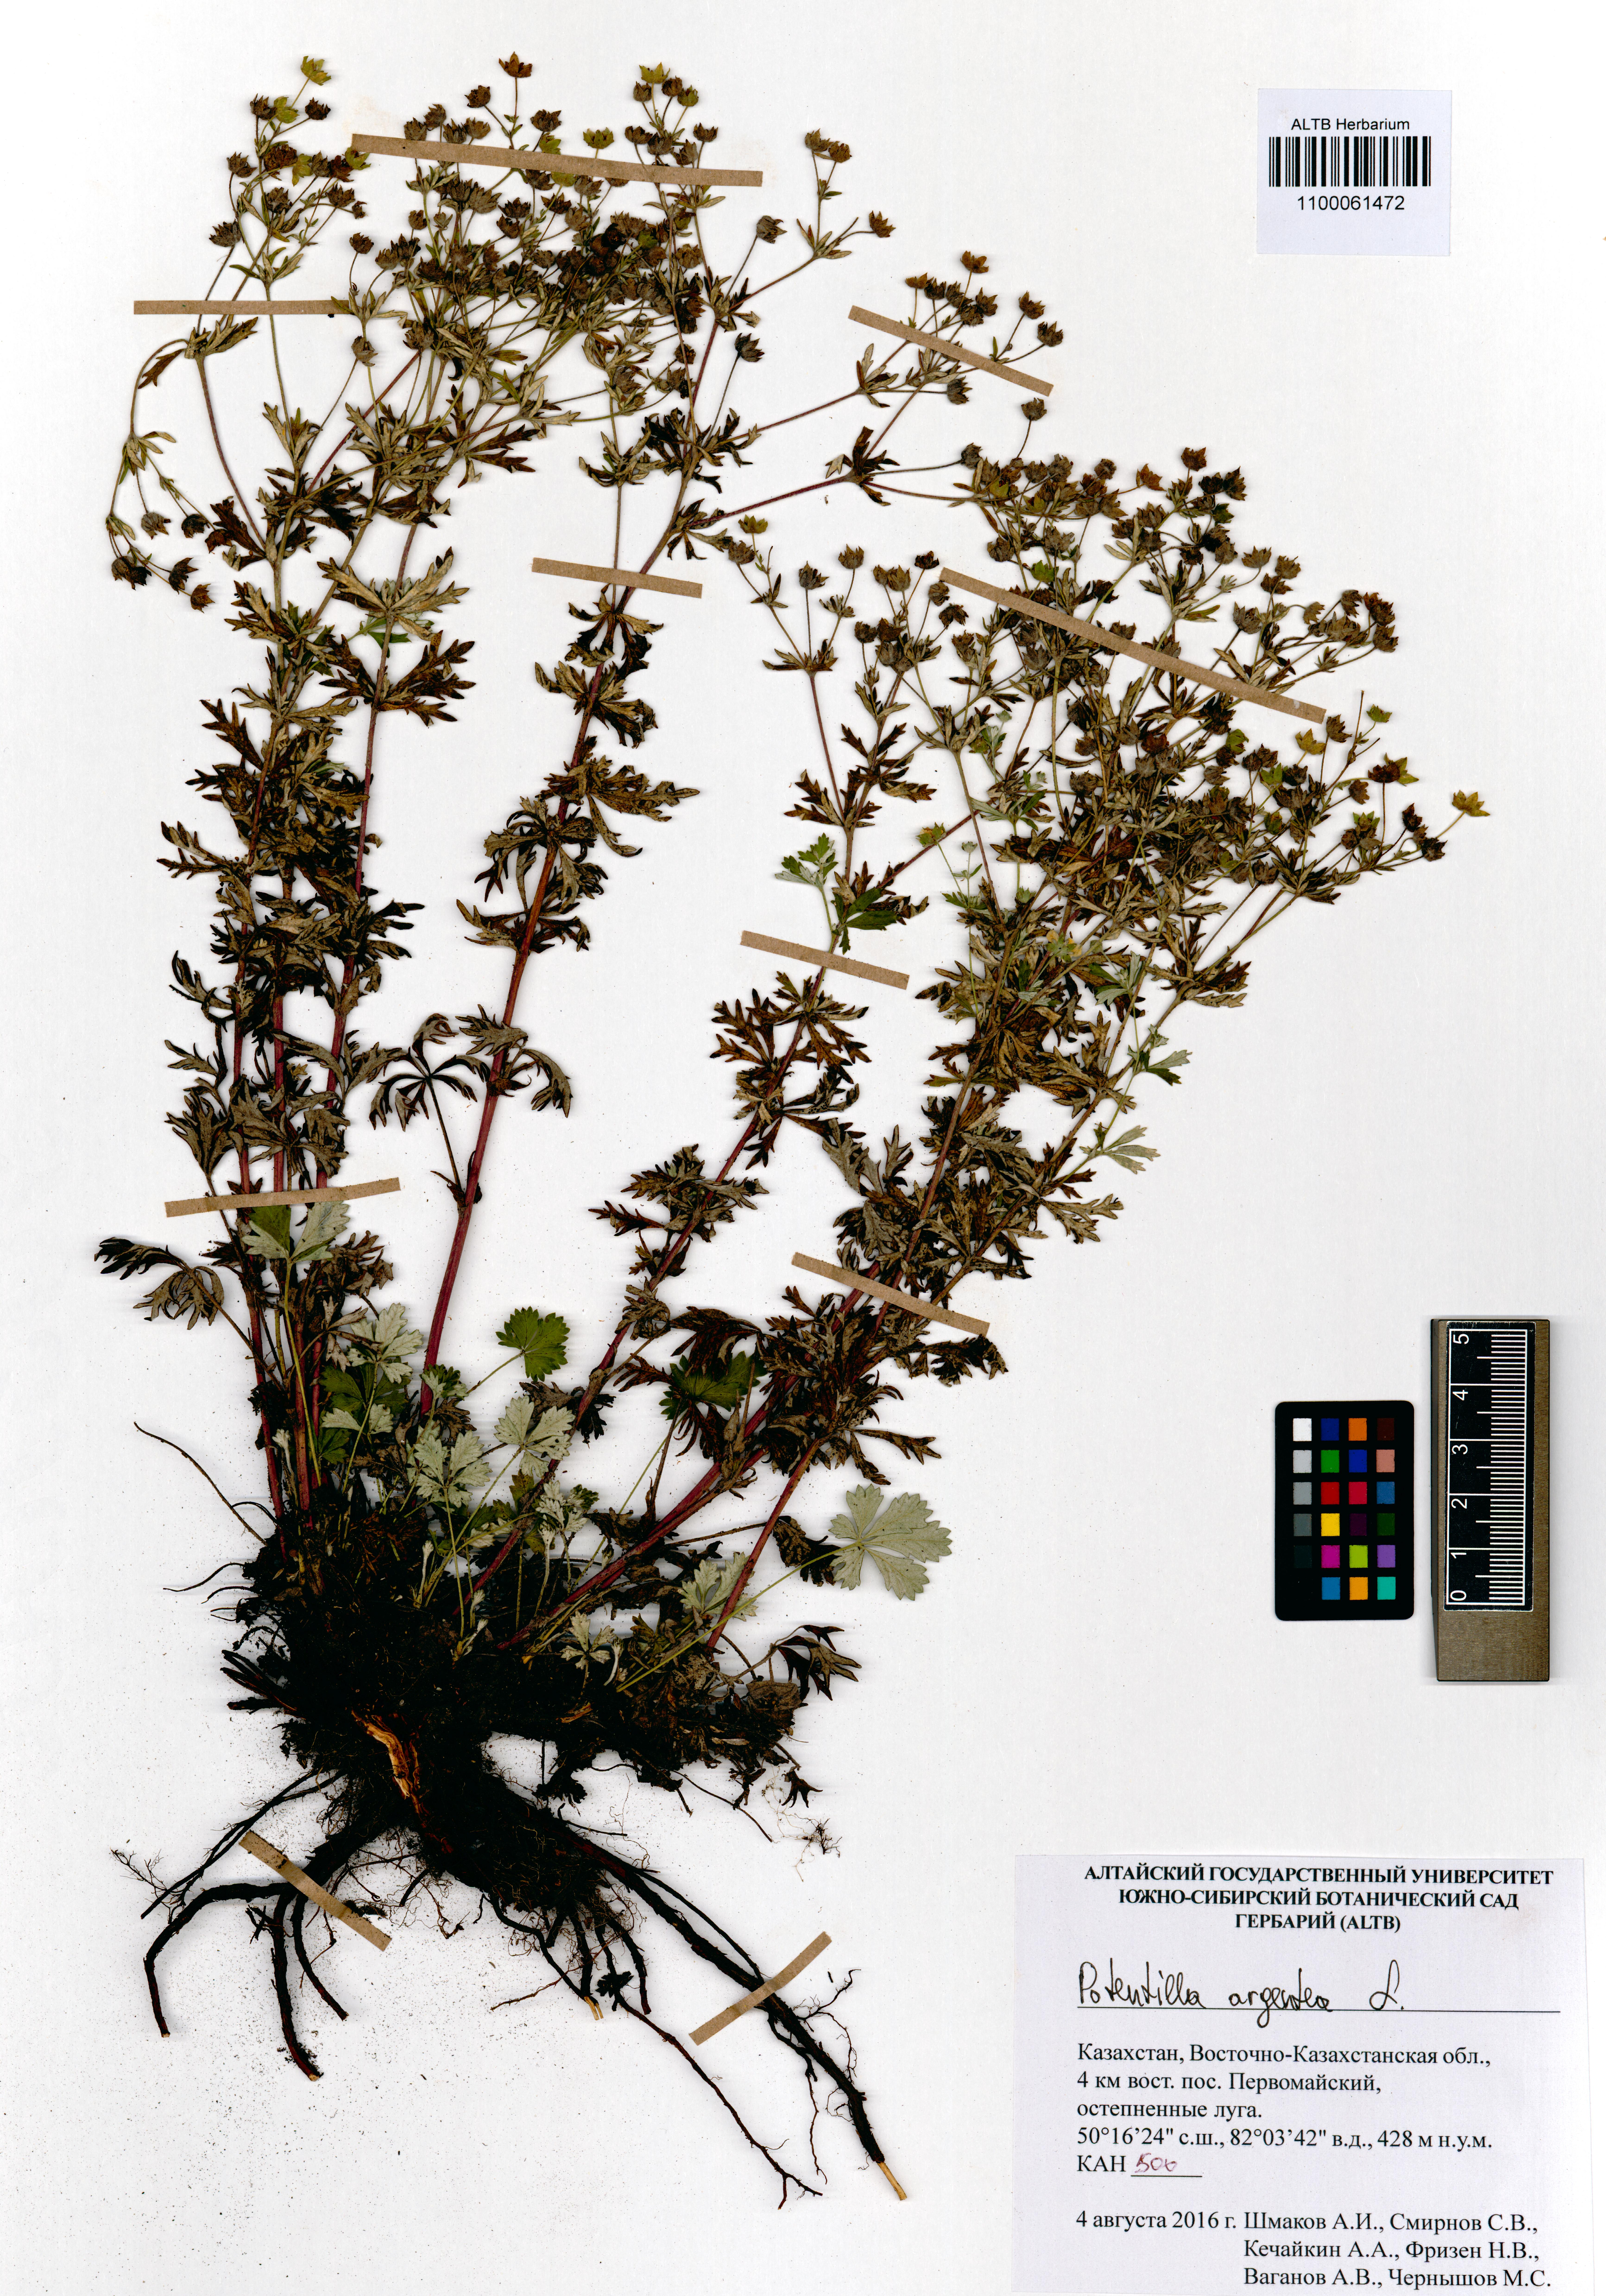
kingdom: Plantae
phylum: Tracheophyta
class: Magnoliopsida
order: Rosales
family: Rosaceae
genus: Potentilla
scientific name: Potentilla argentea
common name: Hoary cinquefoil
